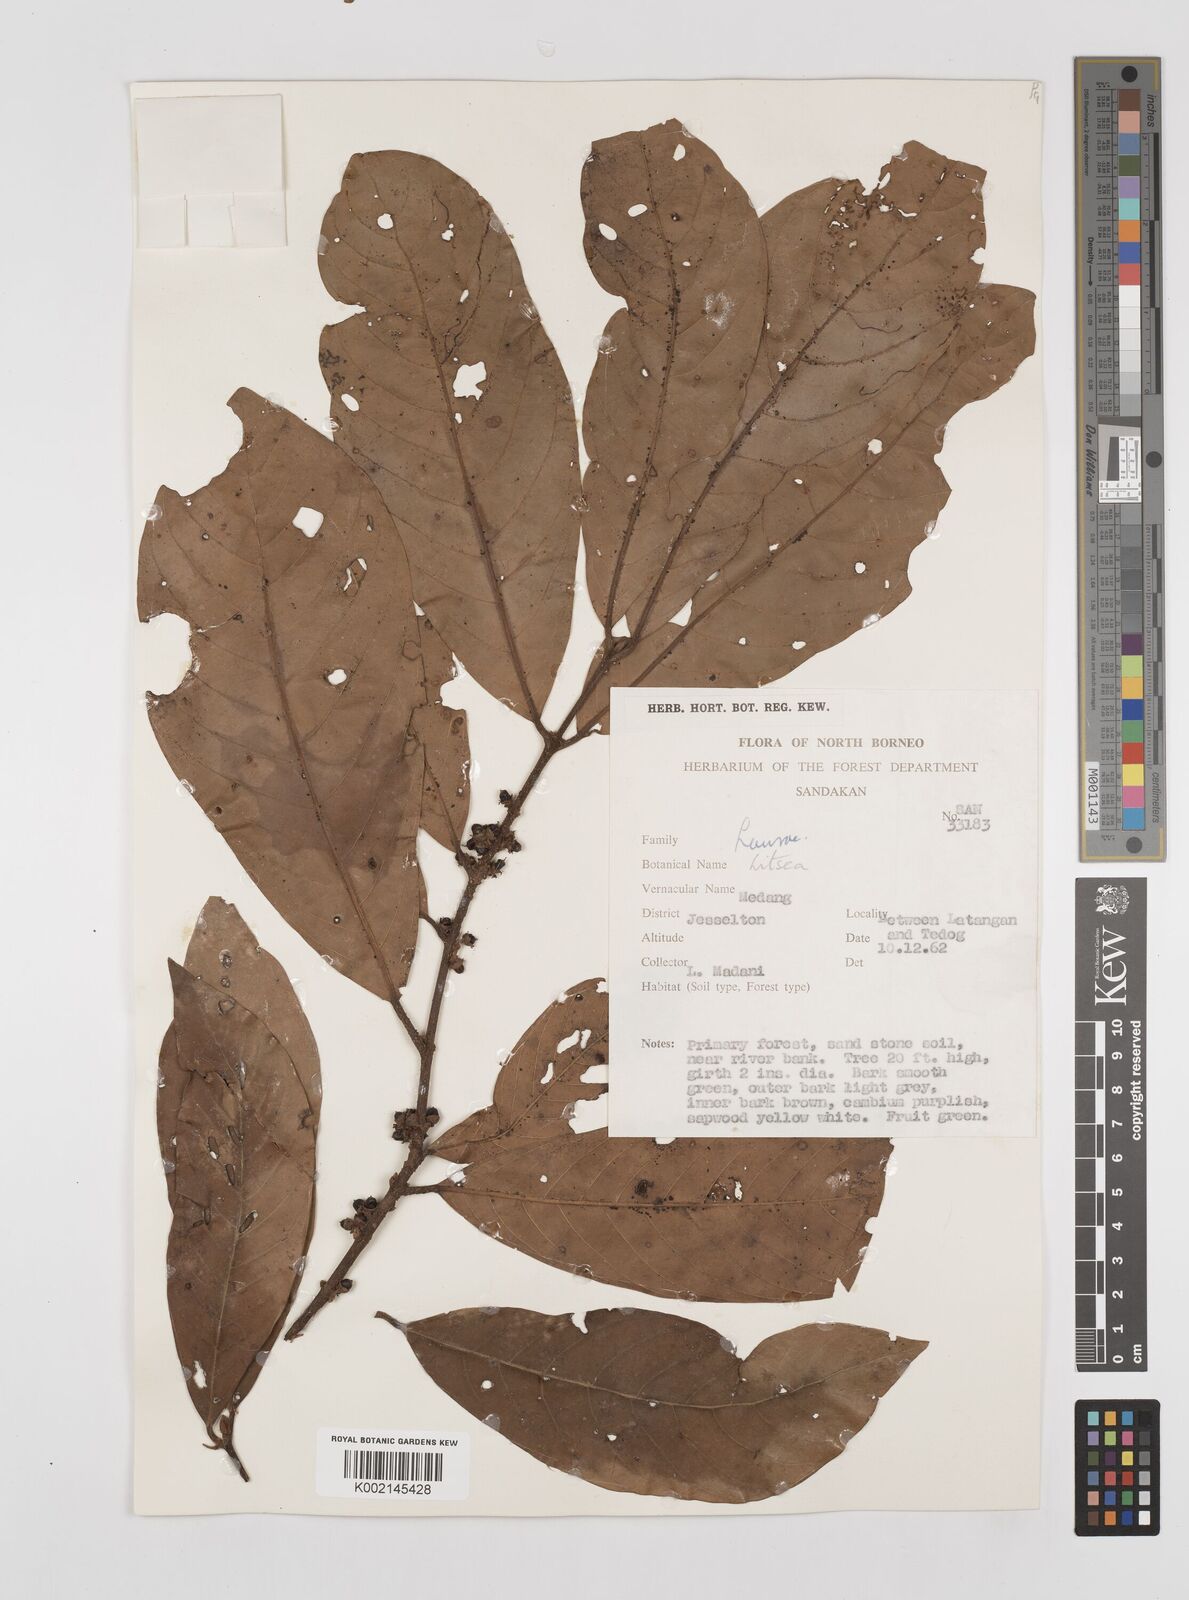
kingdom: Plantae
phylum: Tracheophyta
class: Magnoliopsida
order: Laurales
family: Lauraceae
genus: Litsea
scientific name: Litsea
